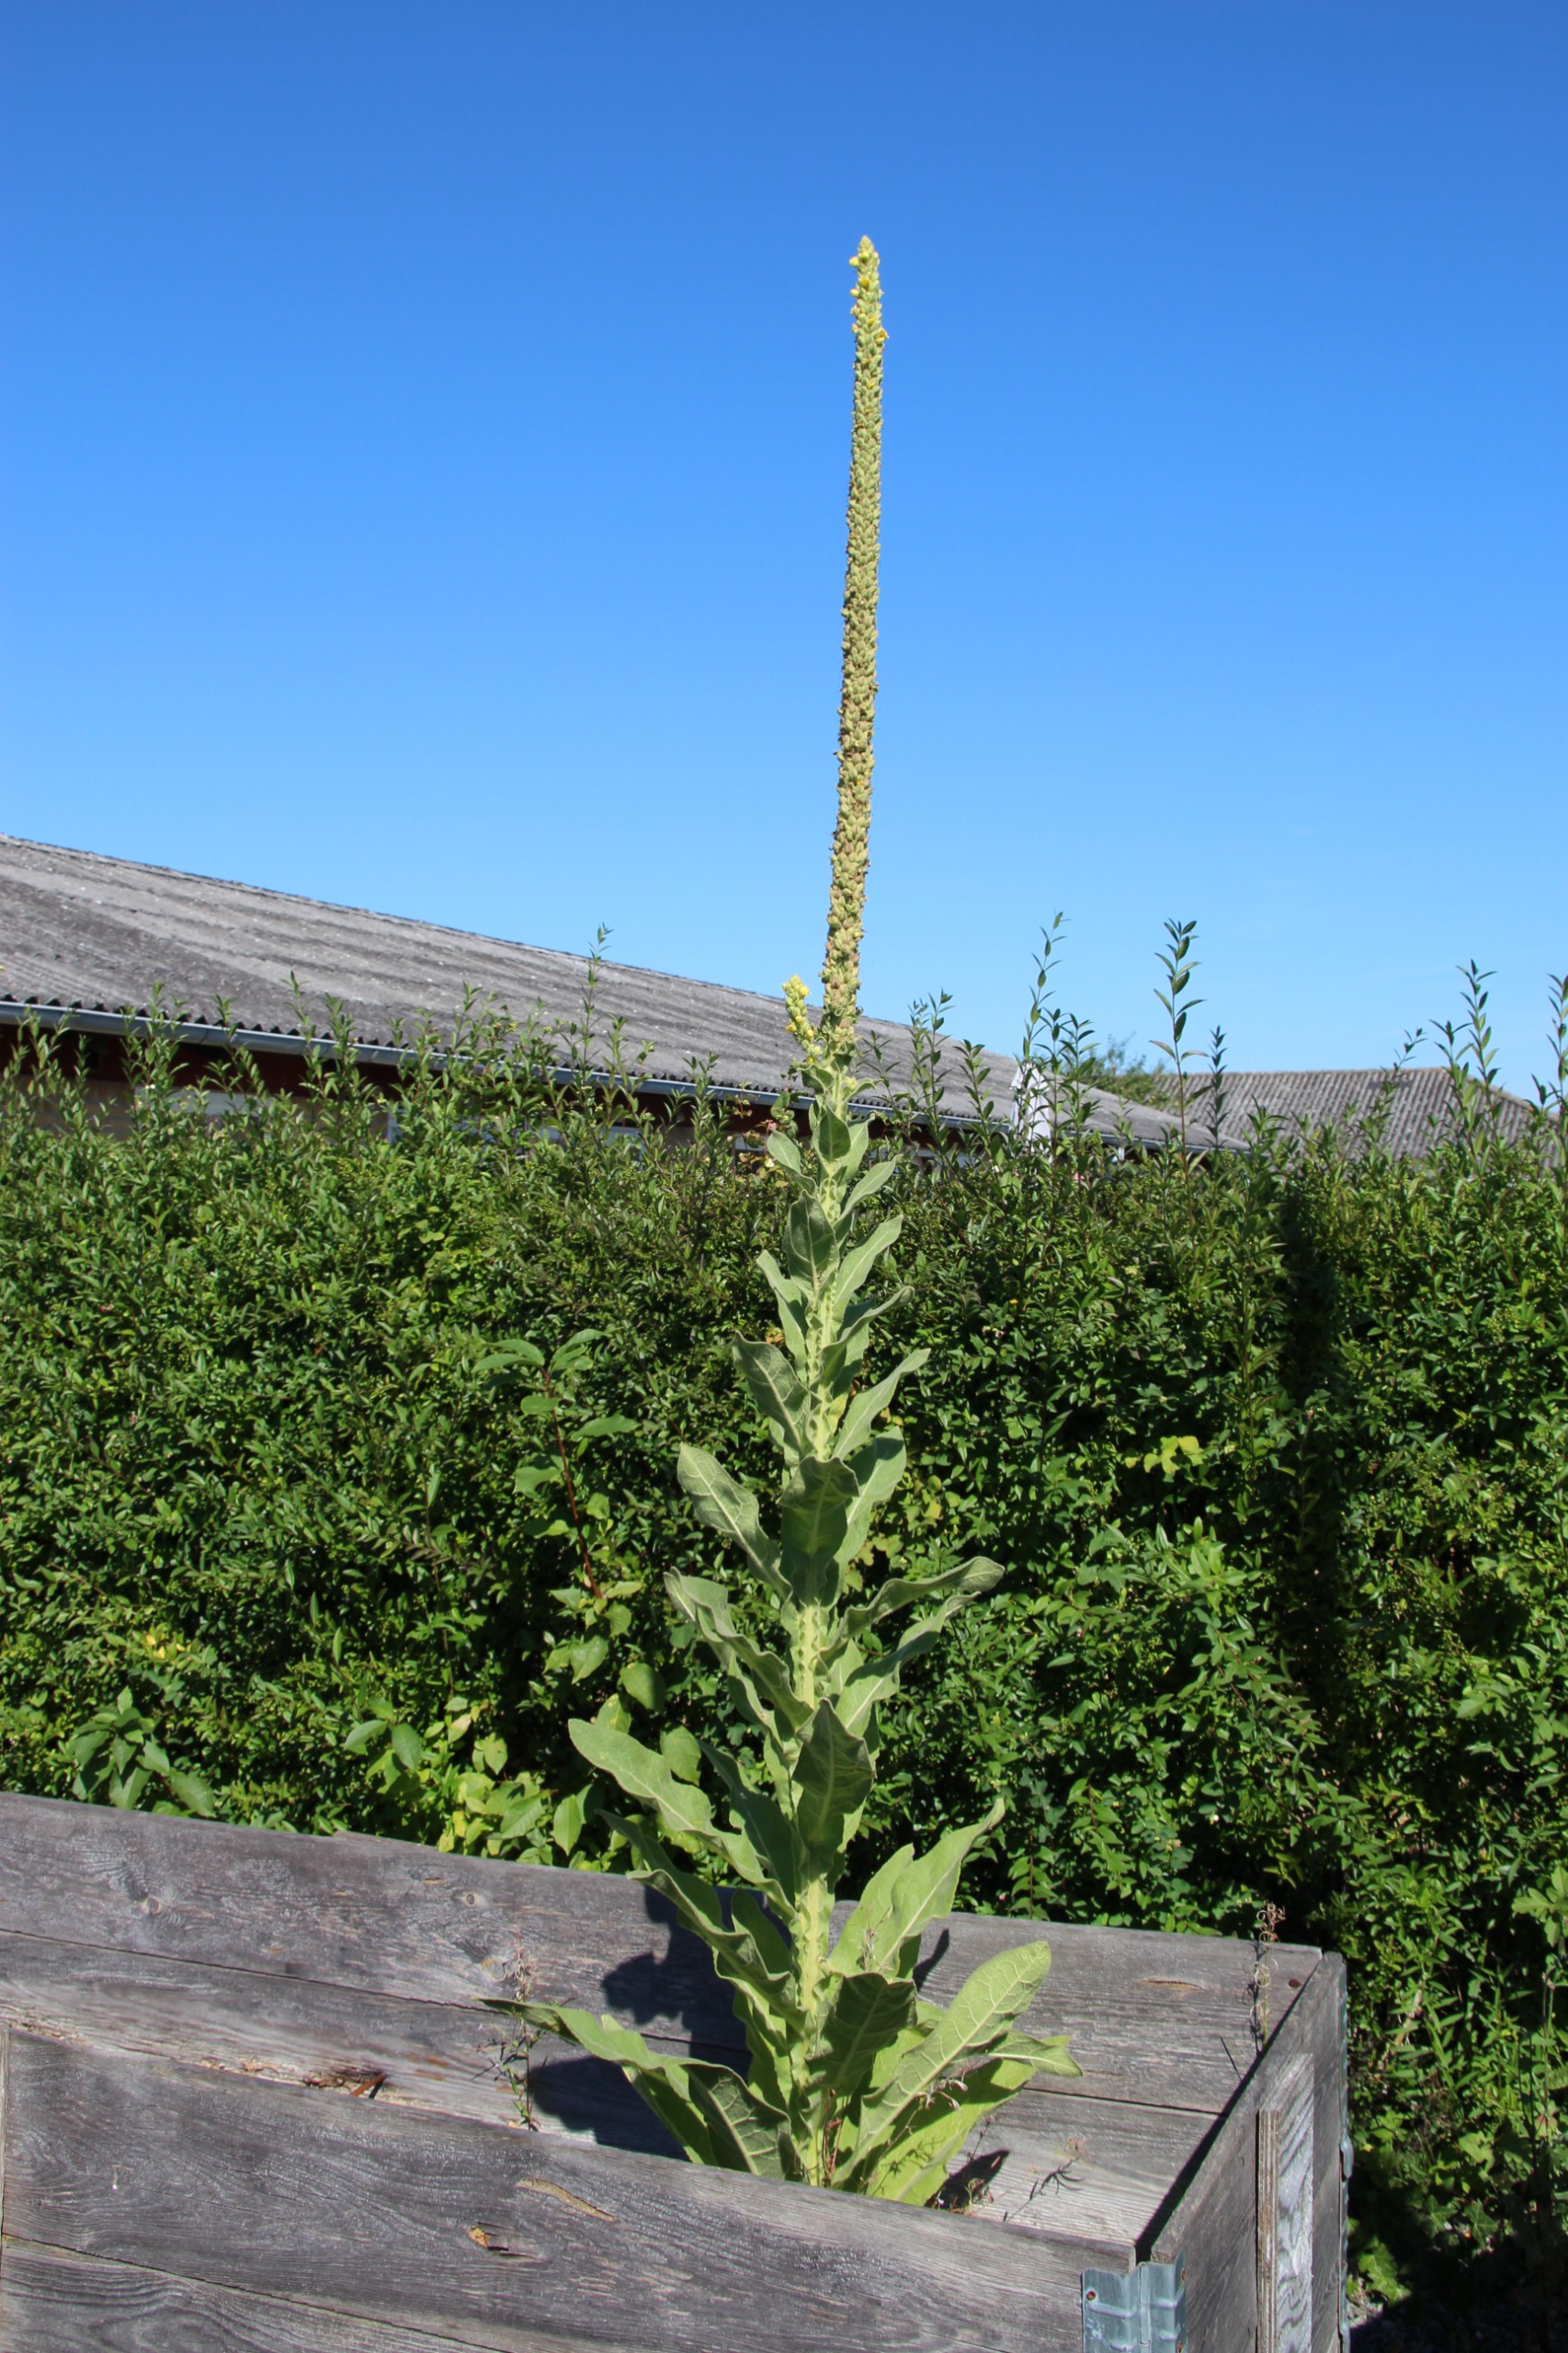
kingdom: Plantae
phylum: Tracheophyta
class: Magnoliopsida
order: Lamiales
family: Scrophulariaceae
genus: Verbascum
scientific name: Verbascum thapsus
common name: Filtbladet kongelys
